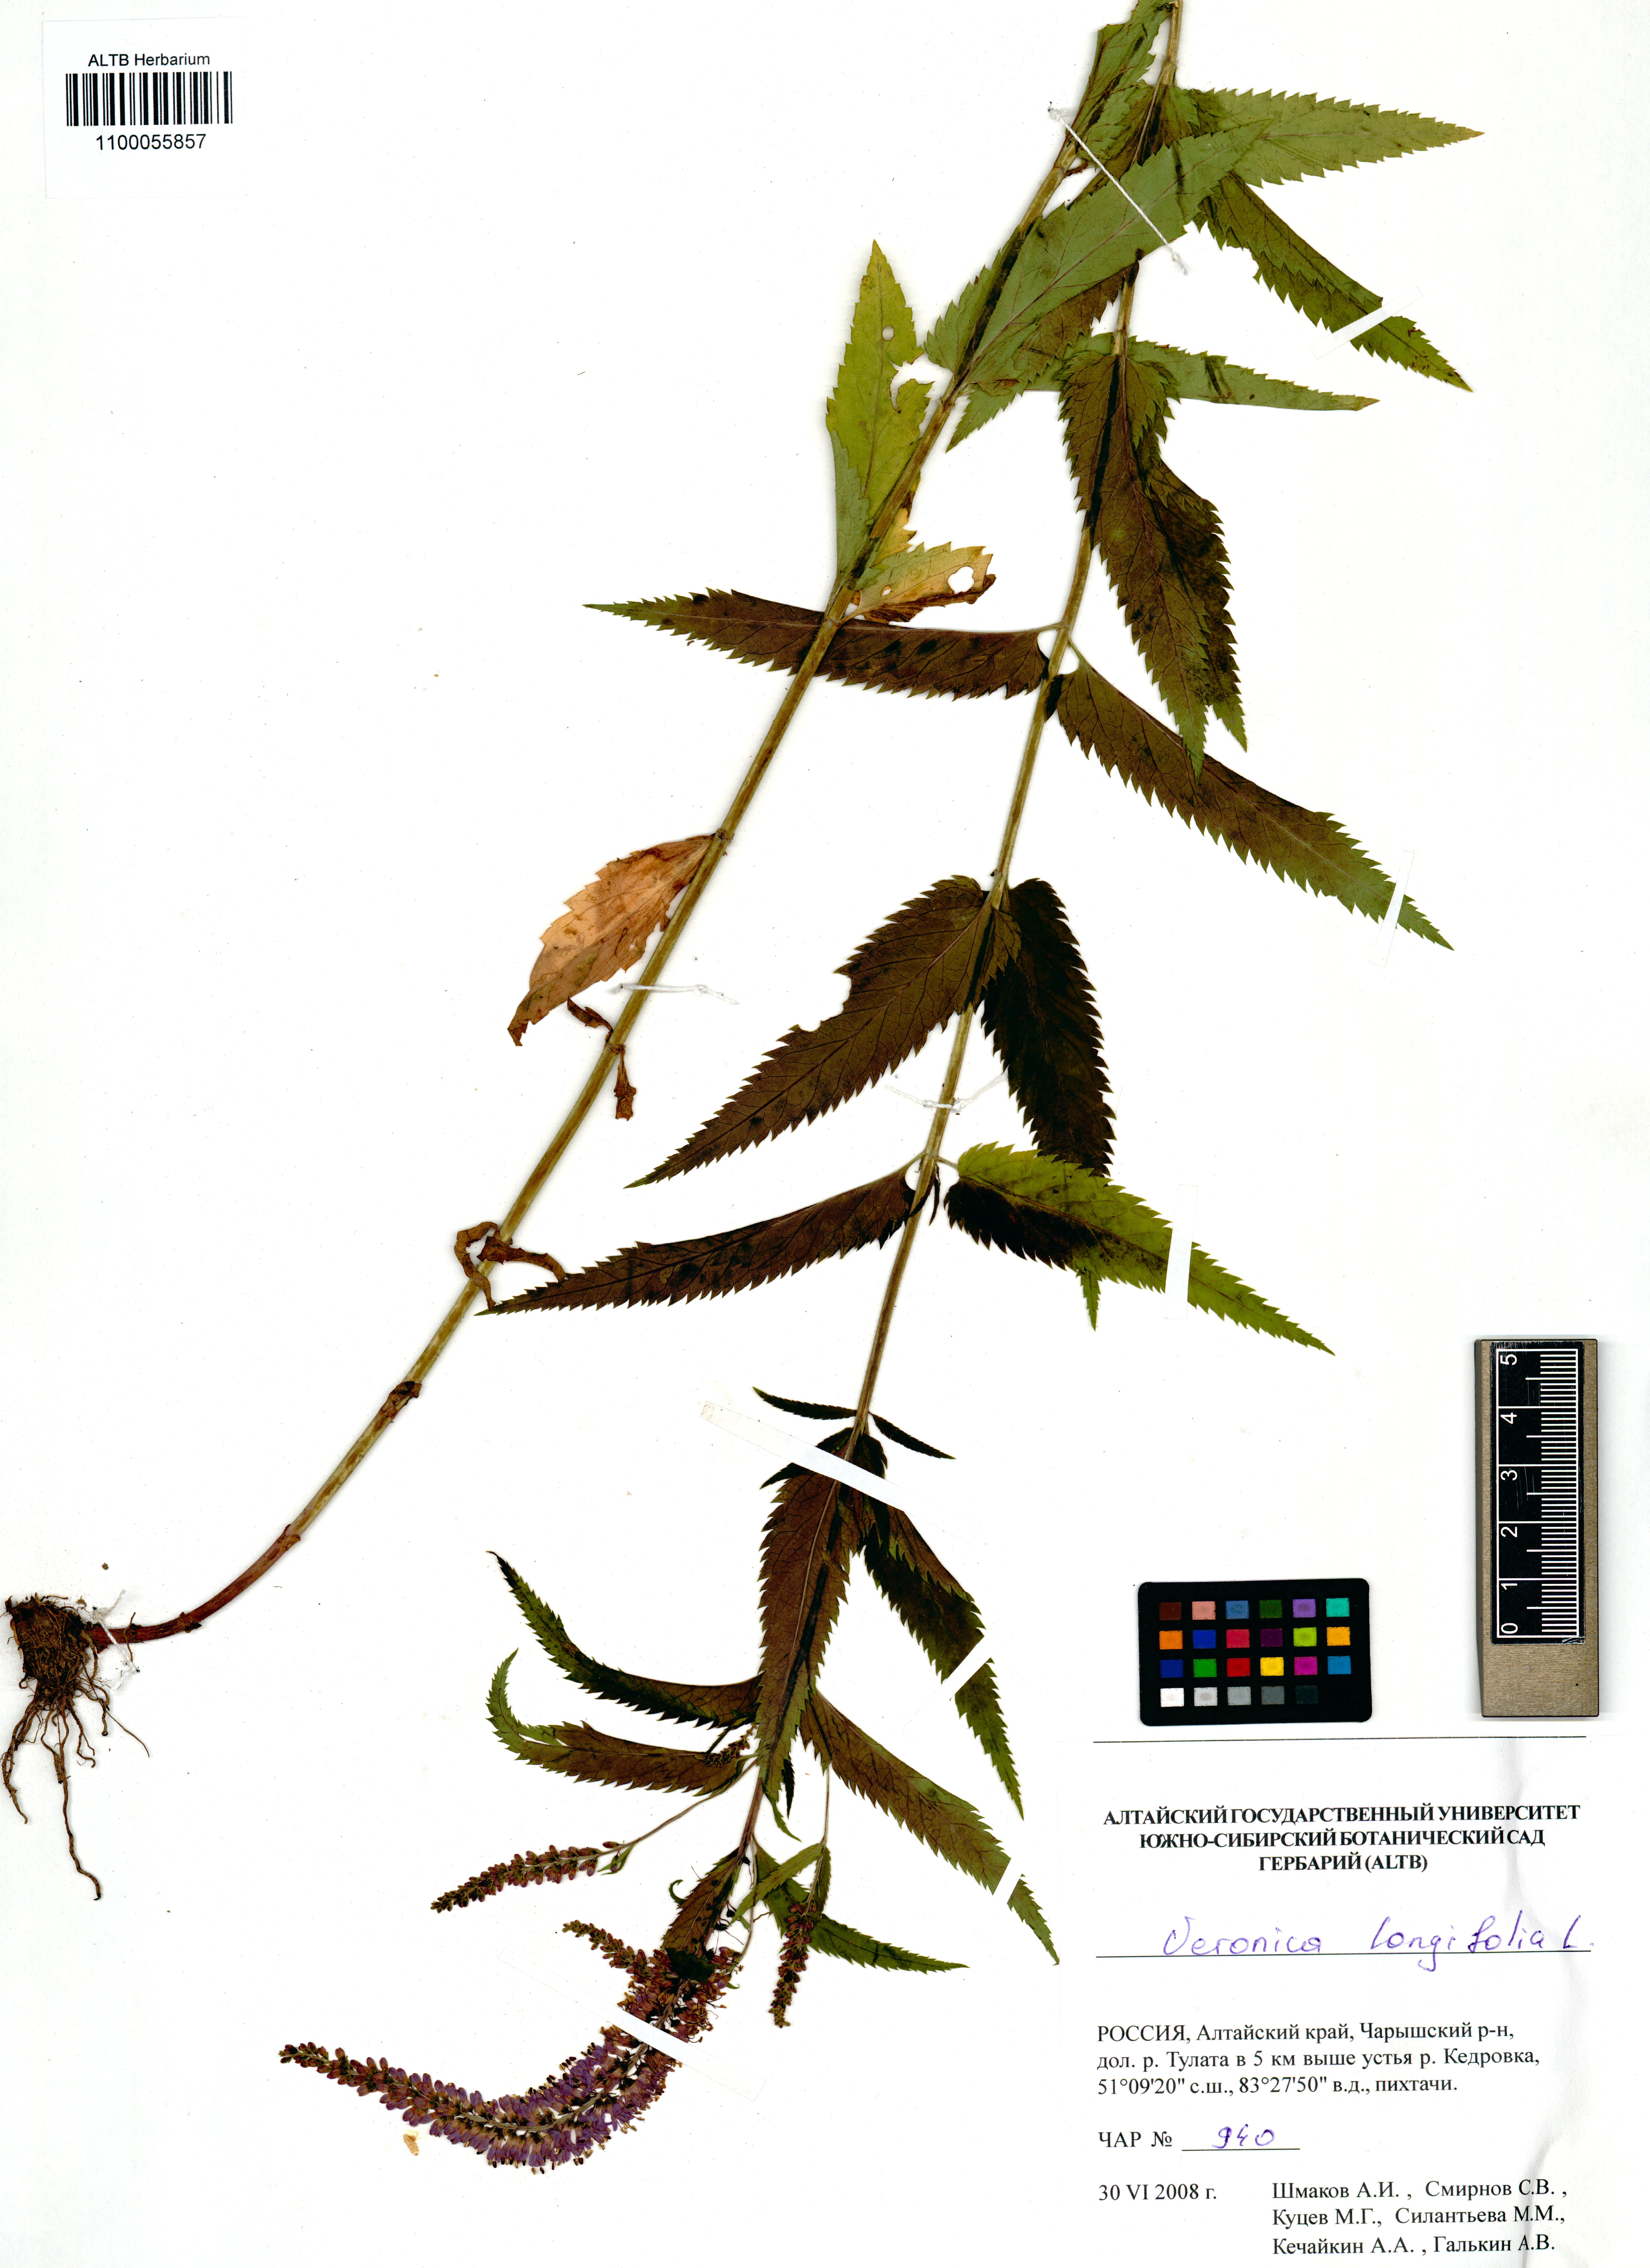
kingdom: Plantae
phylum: Tracheophyta
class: Magnoliopsida
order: Lamiales
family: Plantaginaceae
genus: Veronica
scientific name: Veronica longifolia
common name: Garden speedwell
